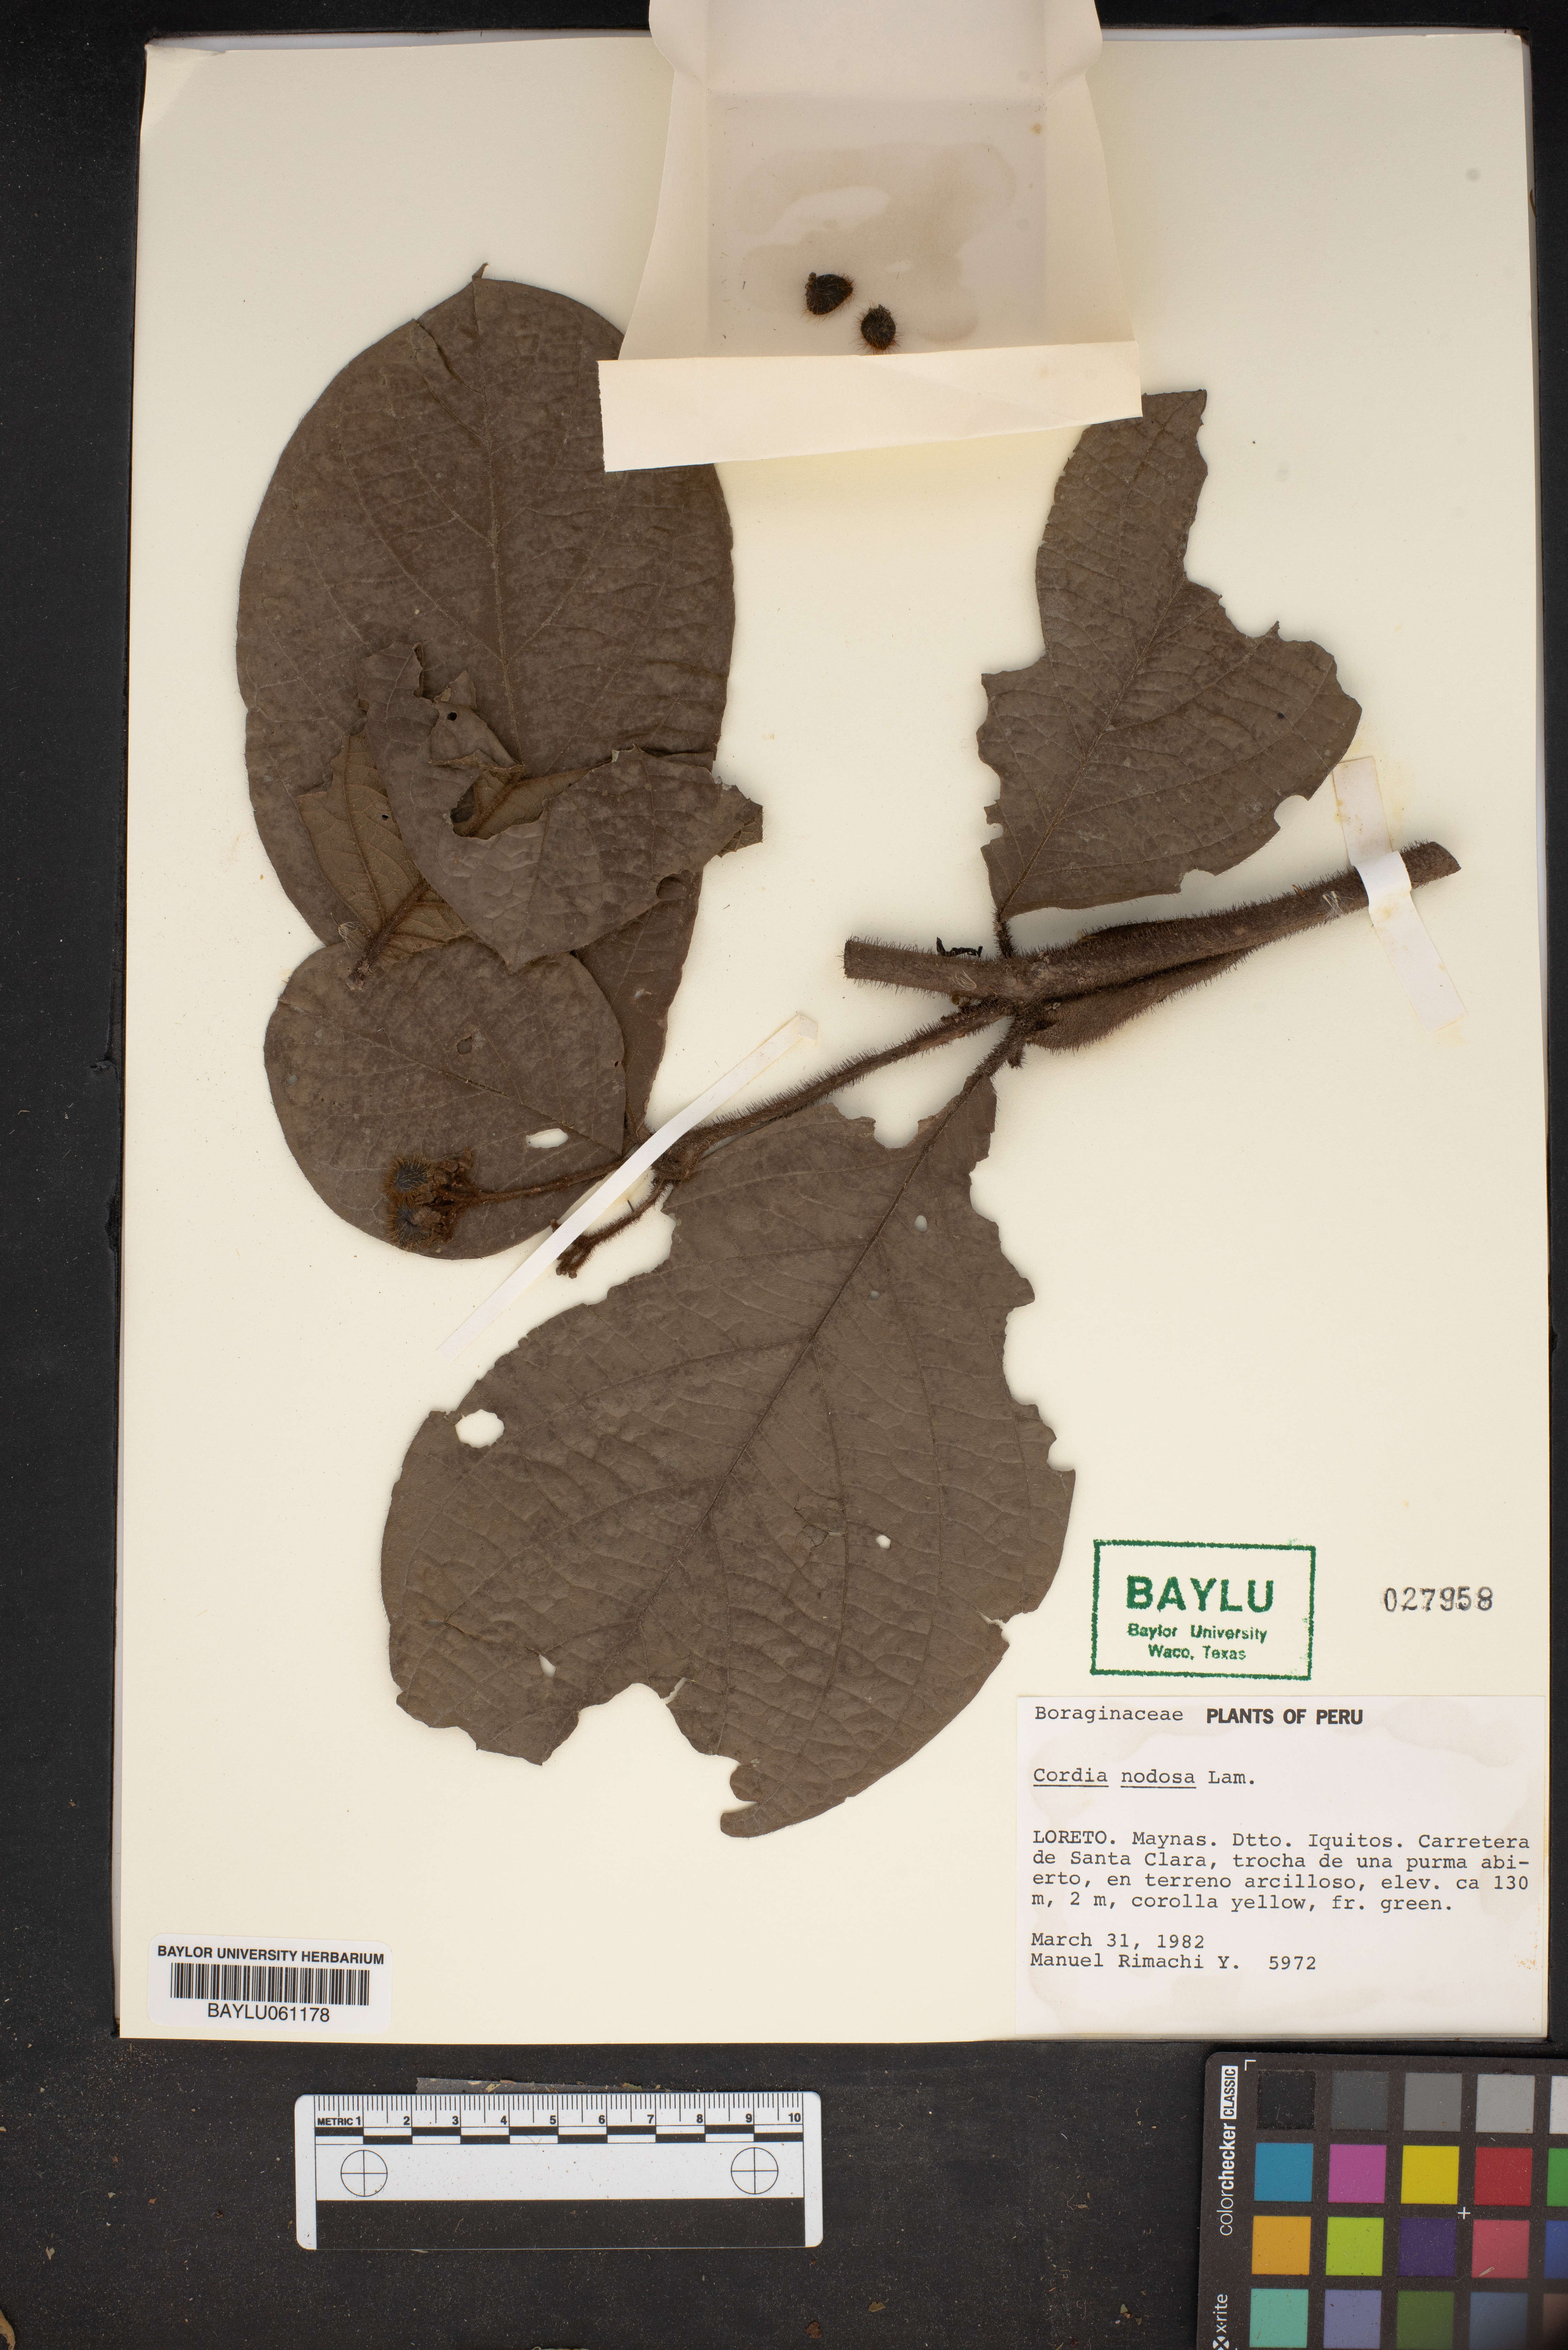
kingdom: Plantae
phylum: Tracheophyta
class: Magnoliopsida
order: Boraginales
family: Cordiaceae
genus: Cordia
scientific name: Cordia nodosa
